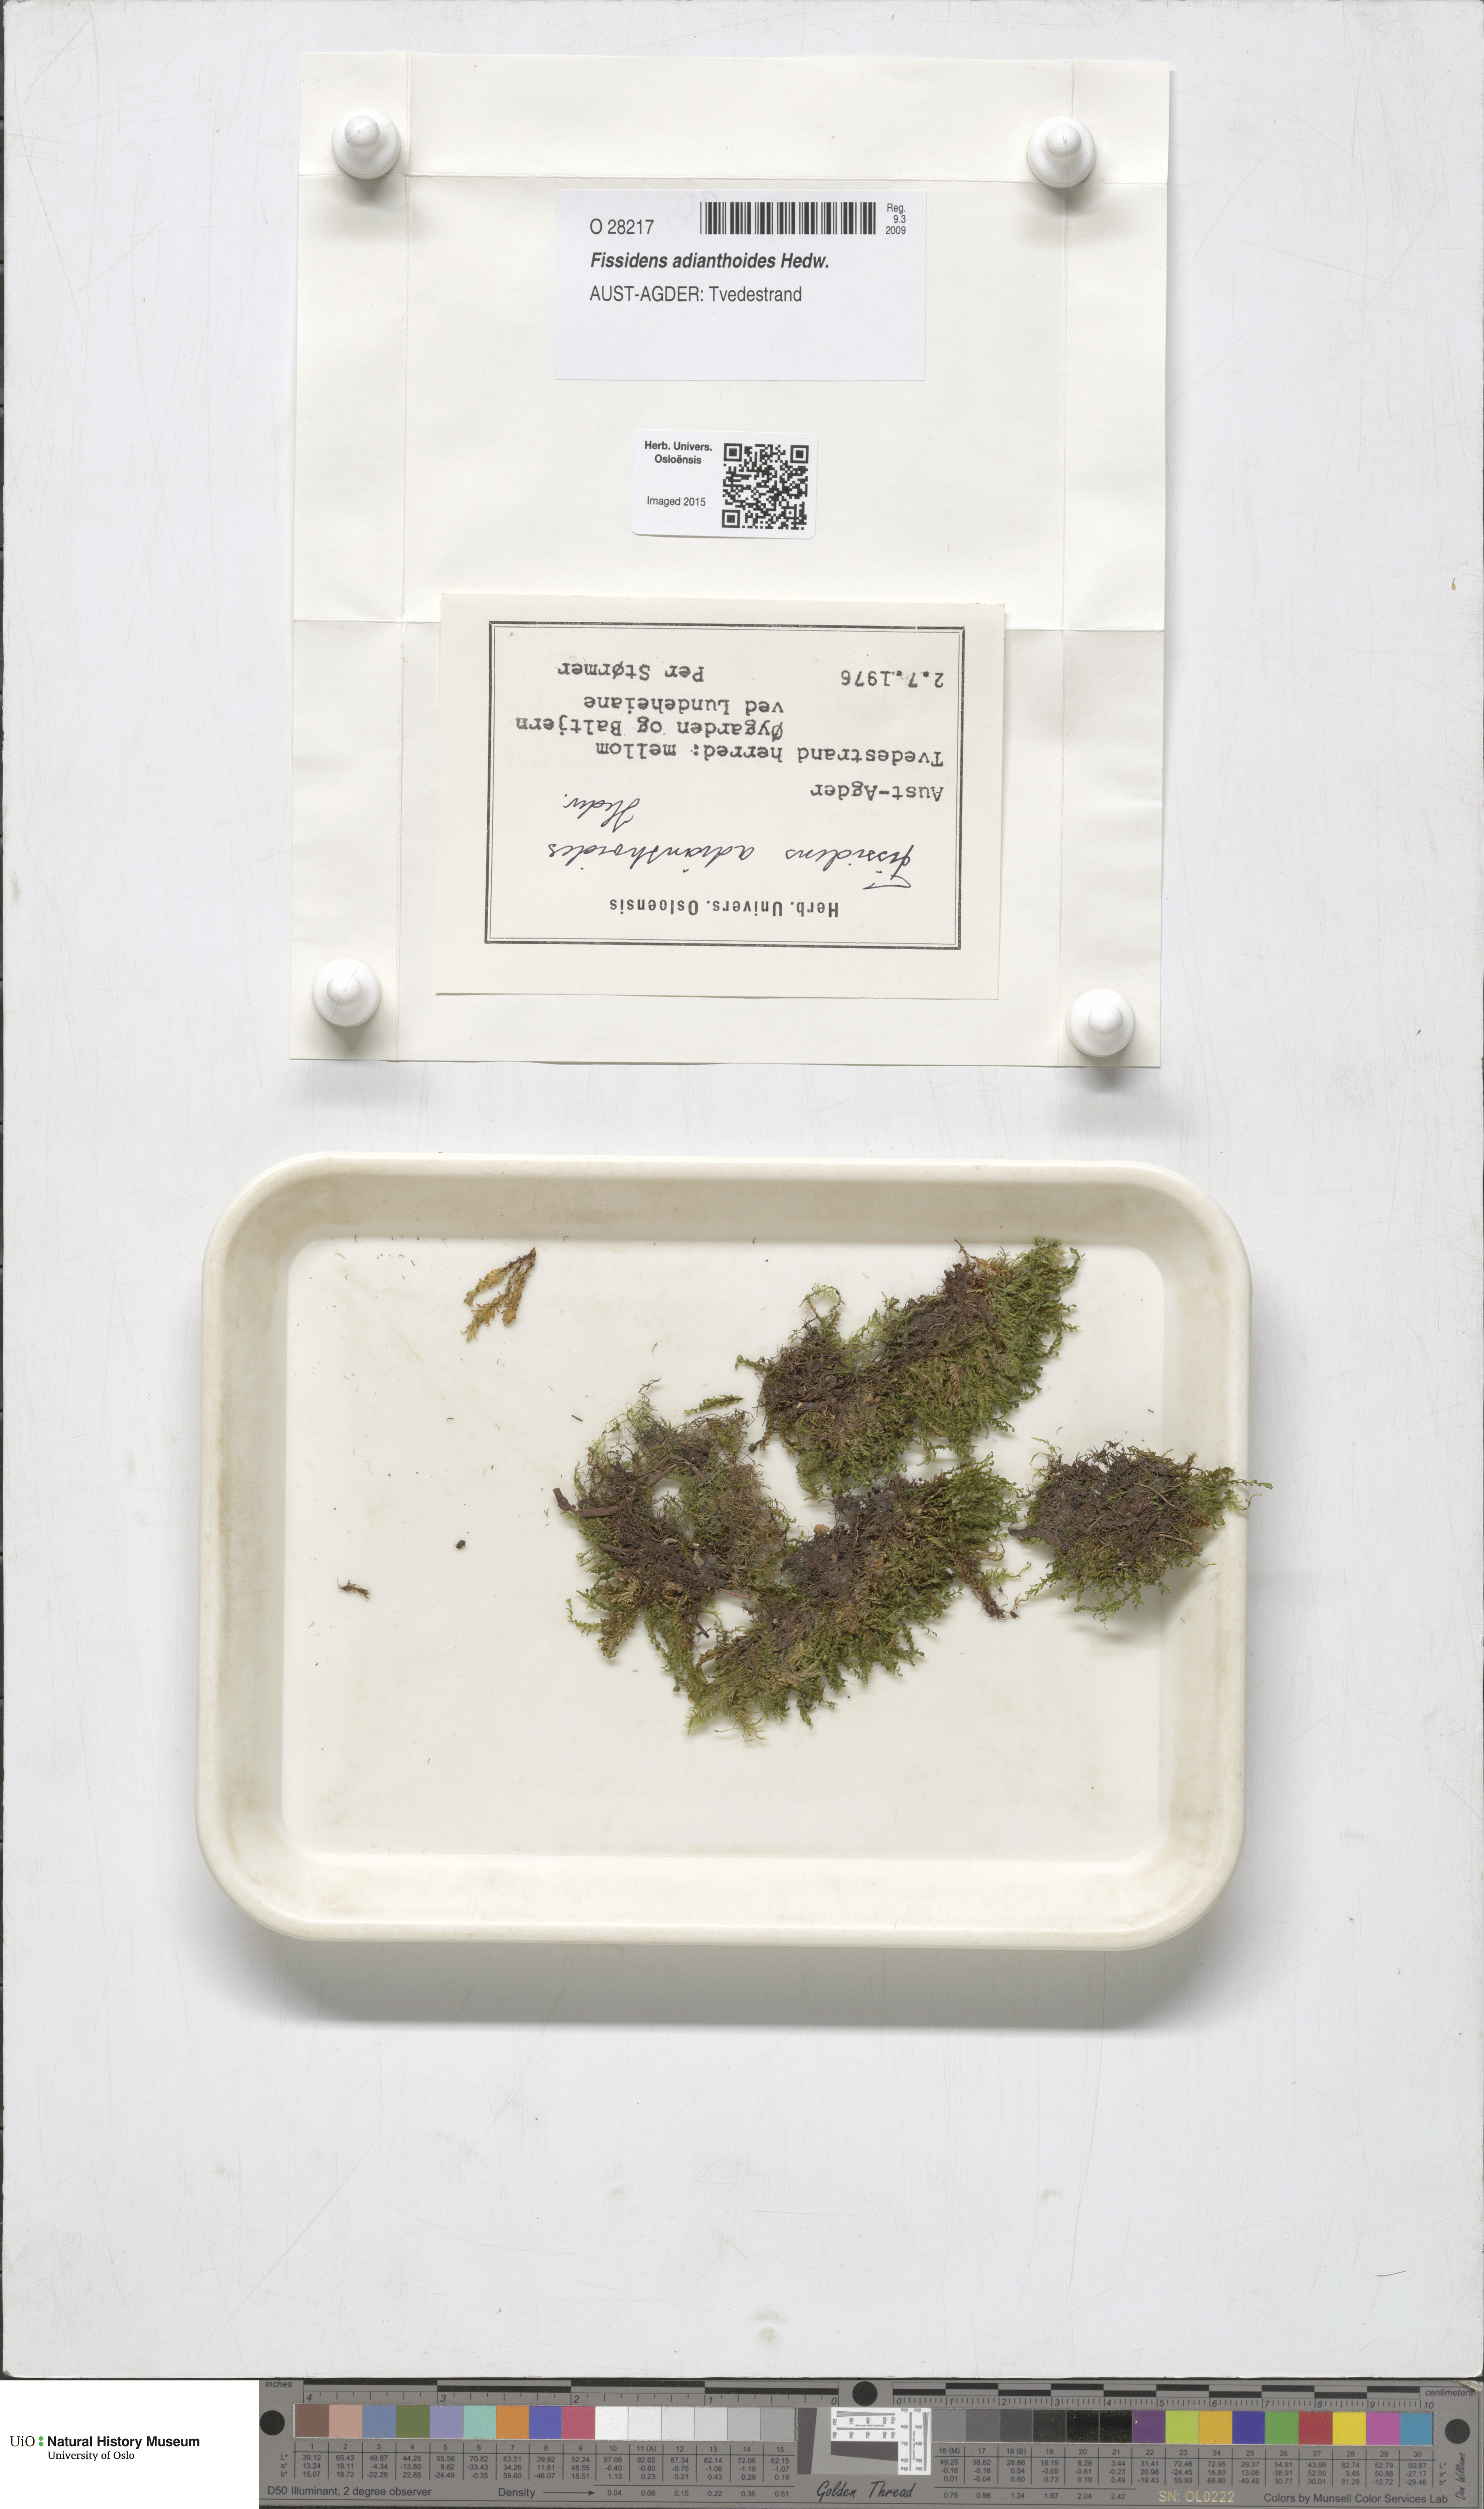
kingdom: Plantae
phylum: Bryophyta
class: Bryopsida
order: Dicranales
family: Fissidentaceae
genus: Fissidens
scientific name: Fissidens adianthoides
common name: Maidenhair pocket moss
